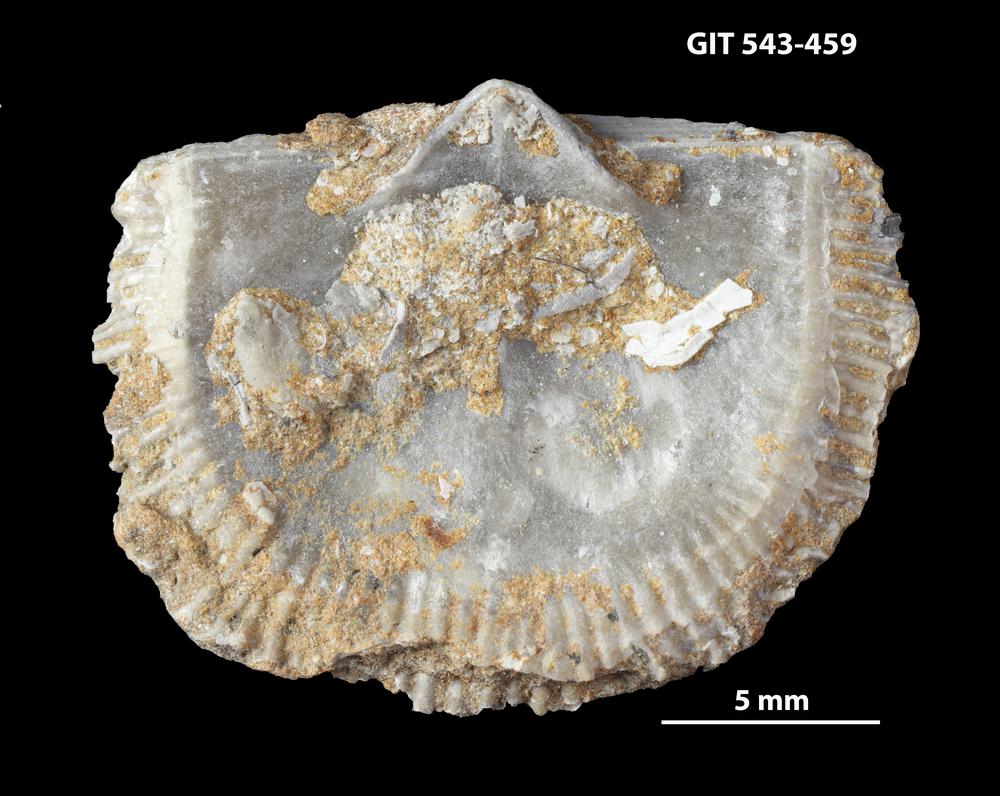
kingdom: Animalia
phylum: Brachiopoda
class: Rhynchonellata
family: Clitambonitidae
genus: Clitambonites
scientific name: Clitambonites
